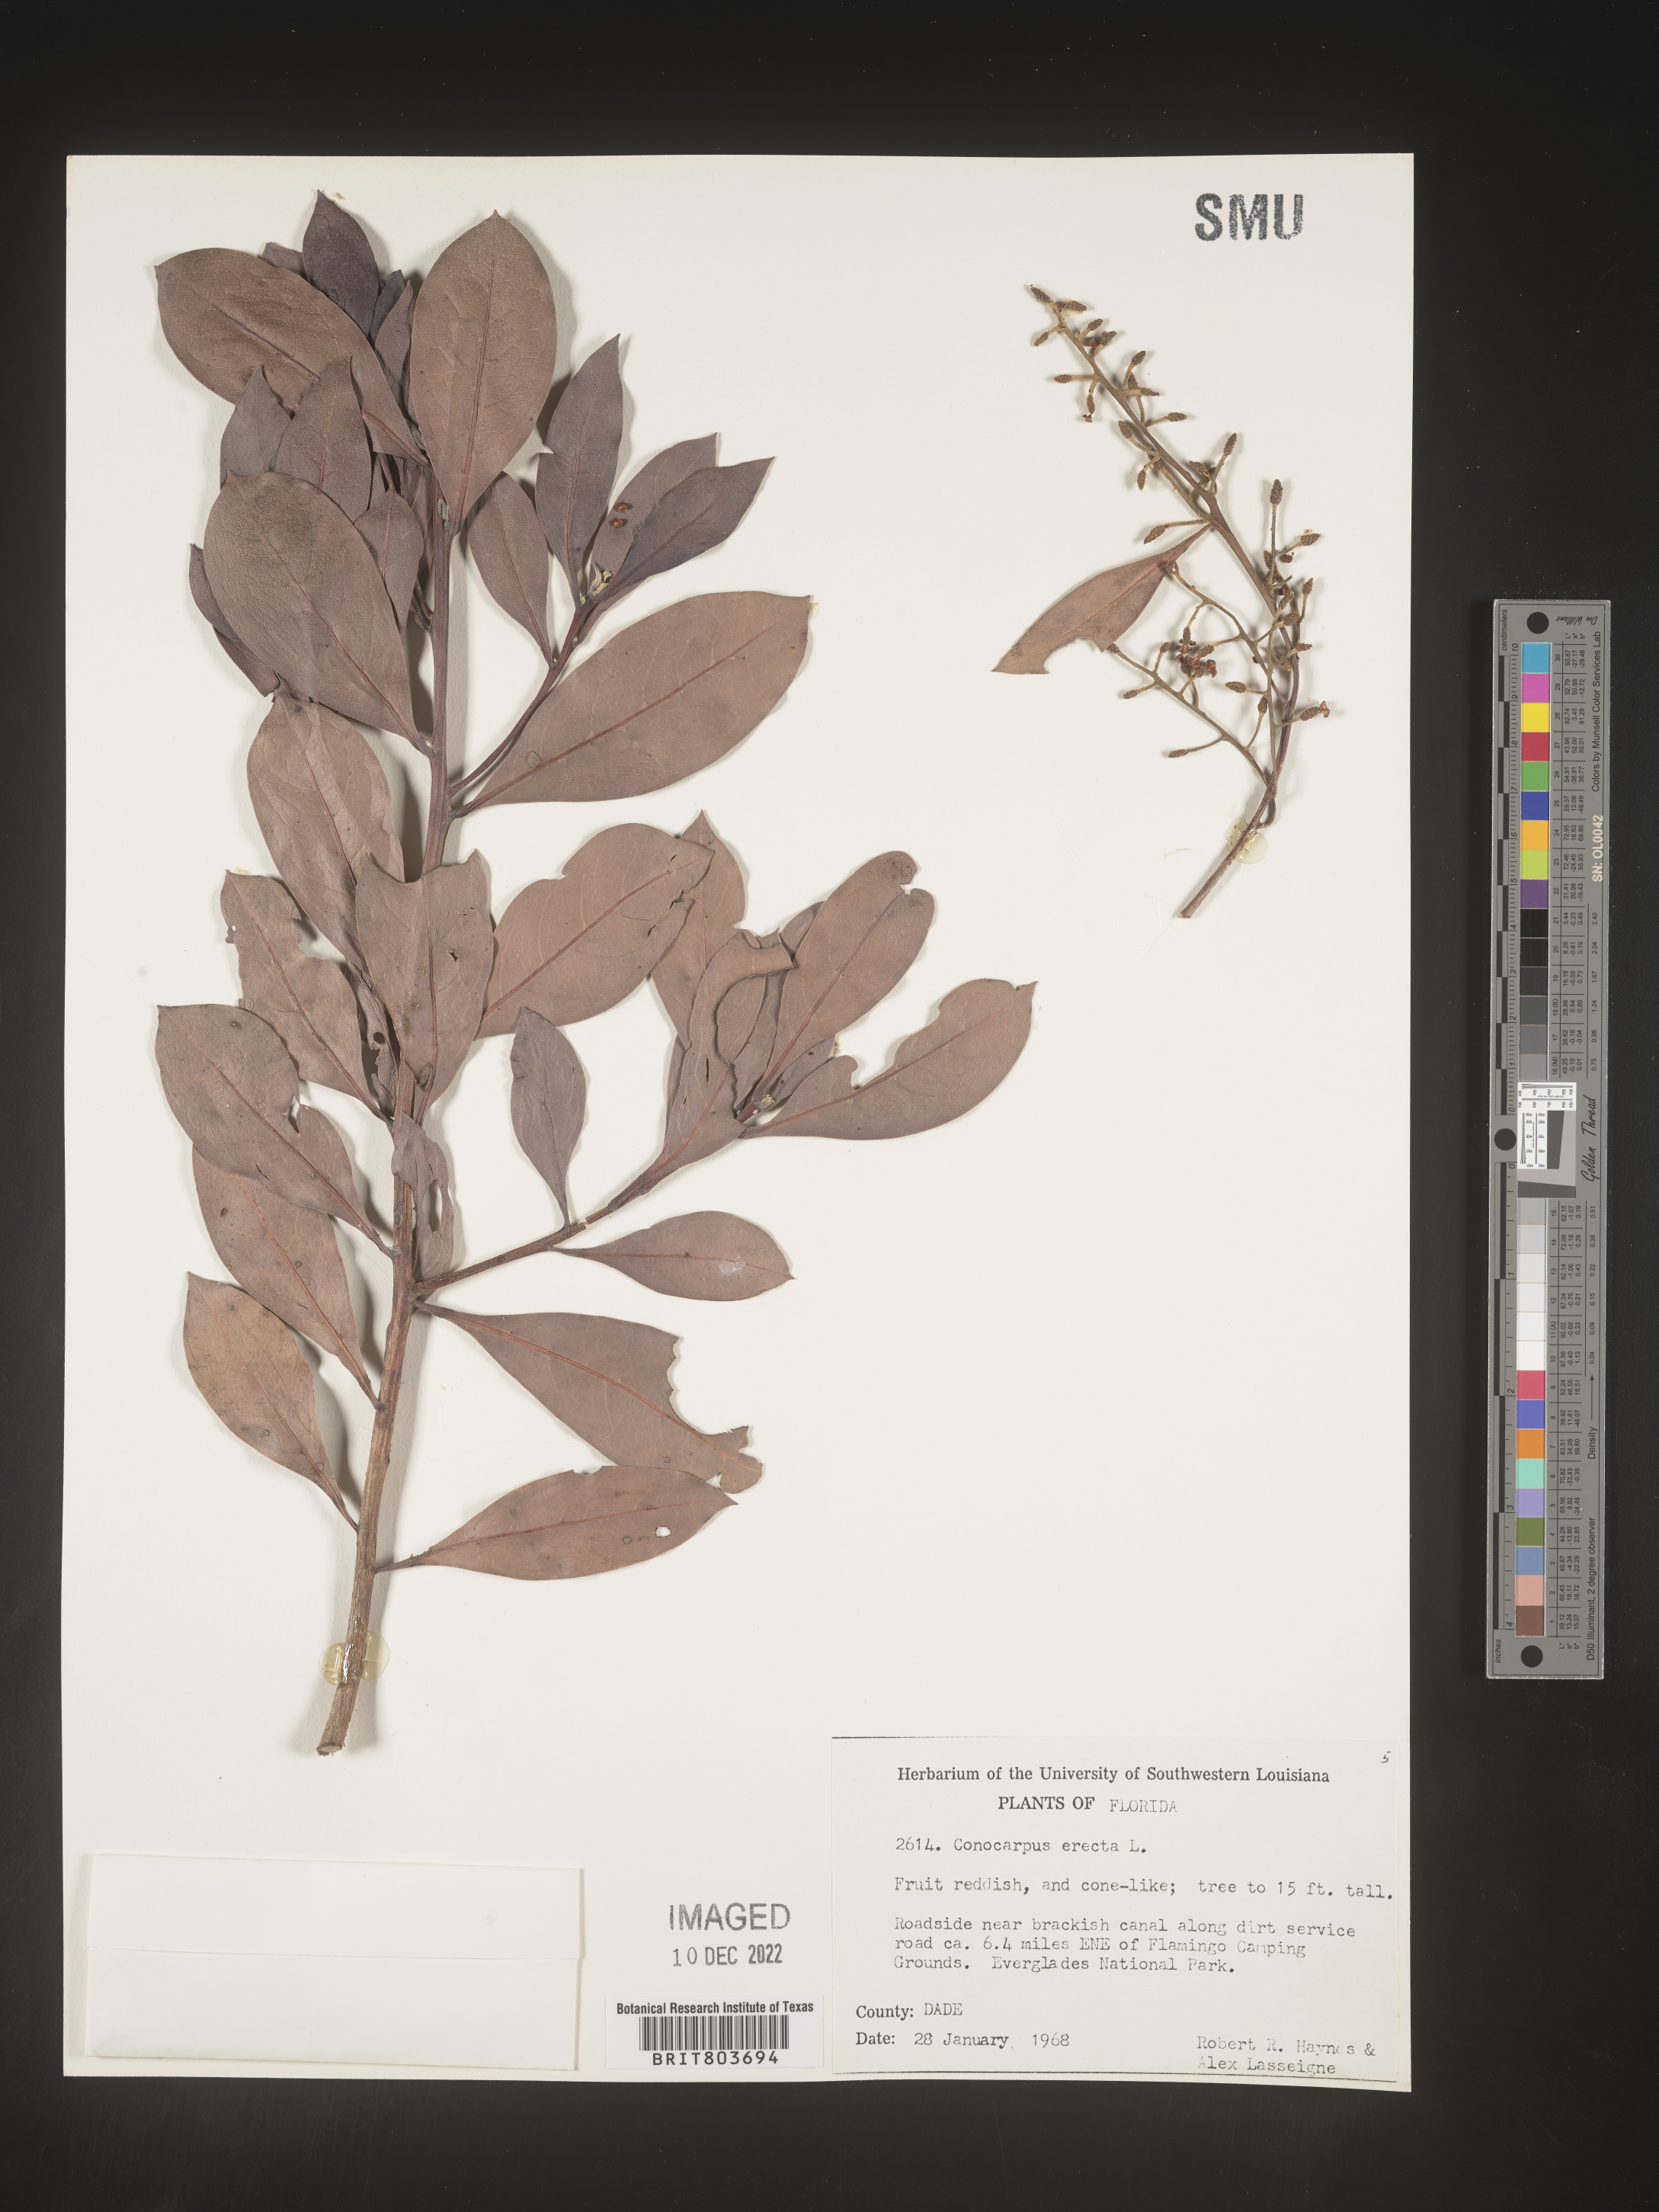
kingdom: Plantae
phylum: Tracheophyta
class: Magnoliopsida
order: Myrtales
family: Combretaceae
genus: Conocarpus
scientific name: Conocarpus erectus
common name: Button mangrove
